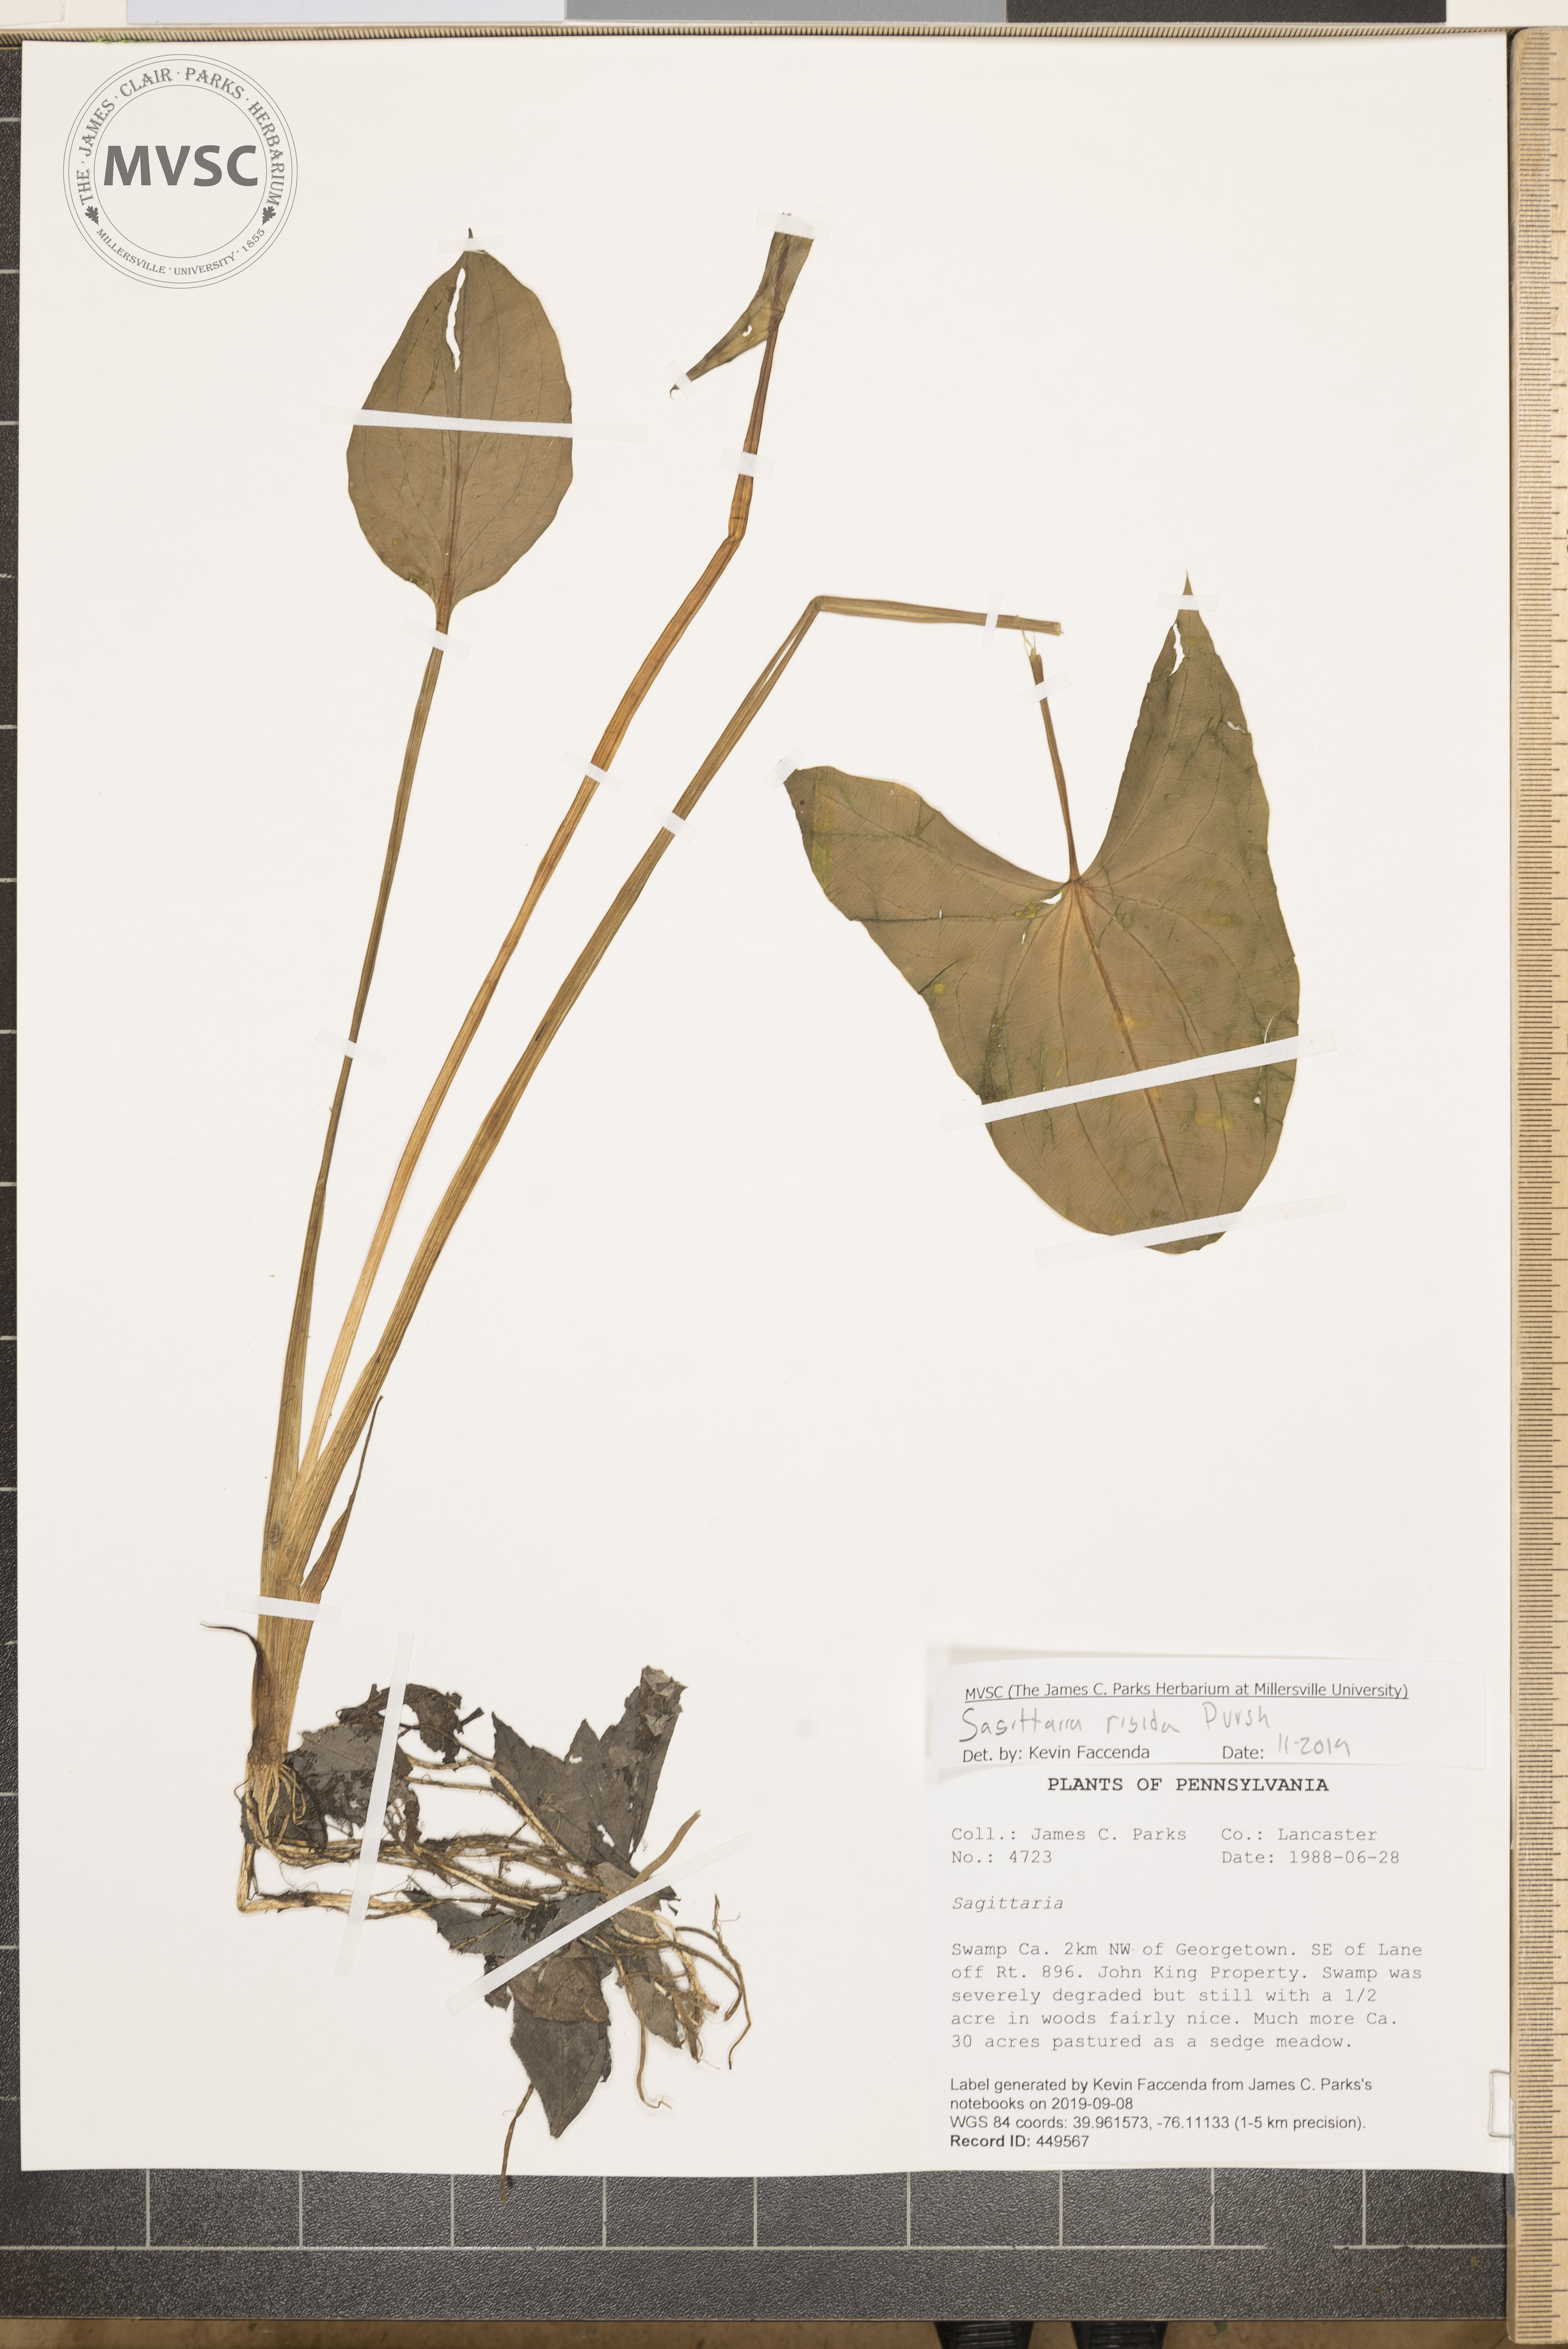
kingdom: Plantae
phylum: Tracheophyta
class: Liliopsida
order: Alismatales
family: Alismataceae
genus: Sagittaria
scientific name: Sagittaria rigida
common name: Canadian arrowhead
